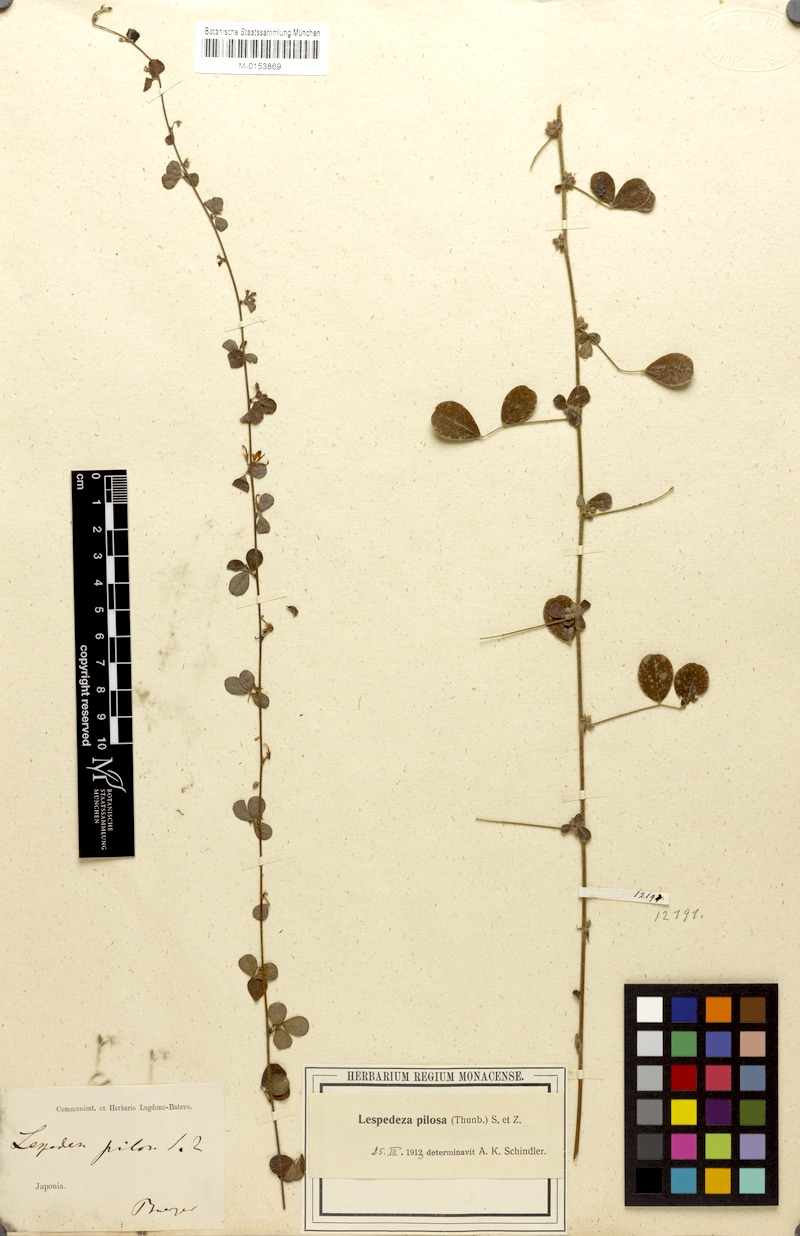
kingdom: Plantae
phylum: Tracheophyta
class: Magnoliopsida
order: Fabales
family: Fabaceae
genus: Lespedeza
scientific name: Lespedeza pilosa
